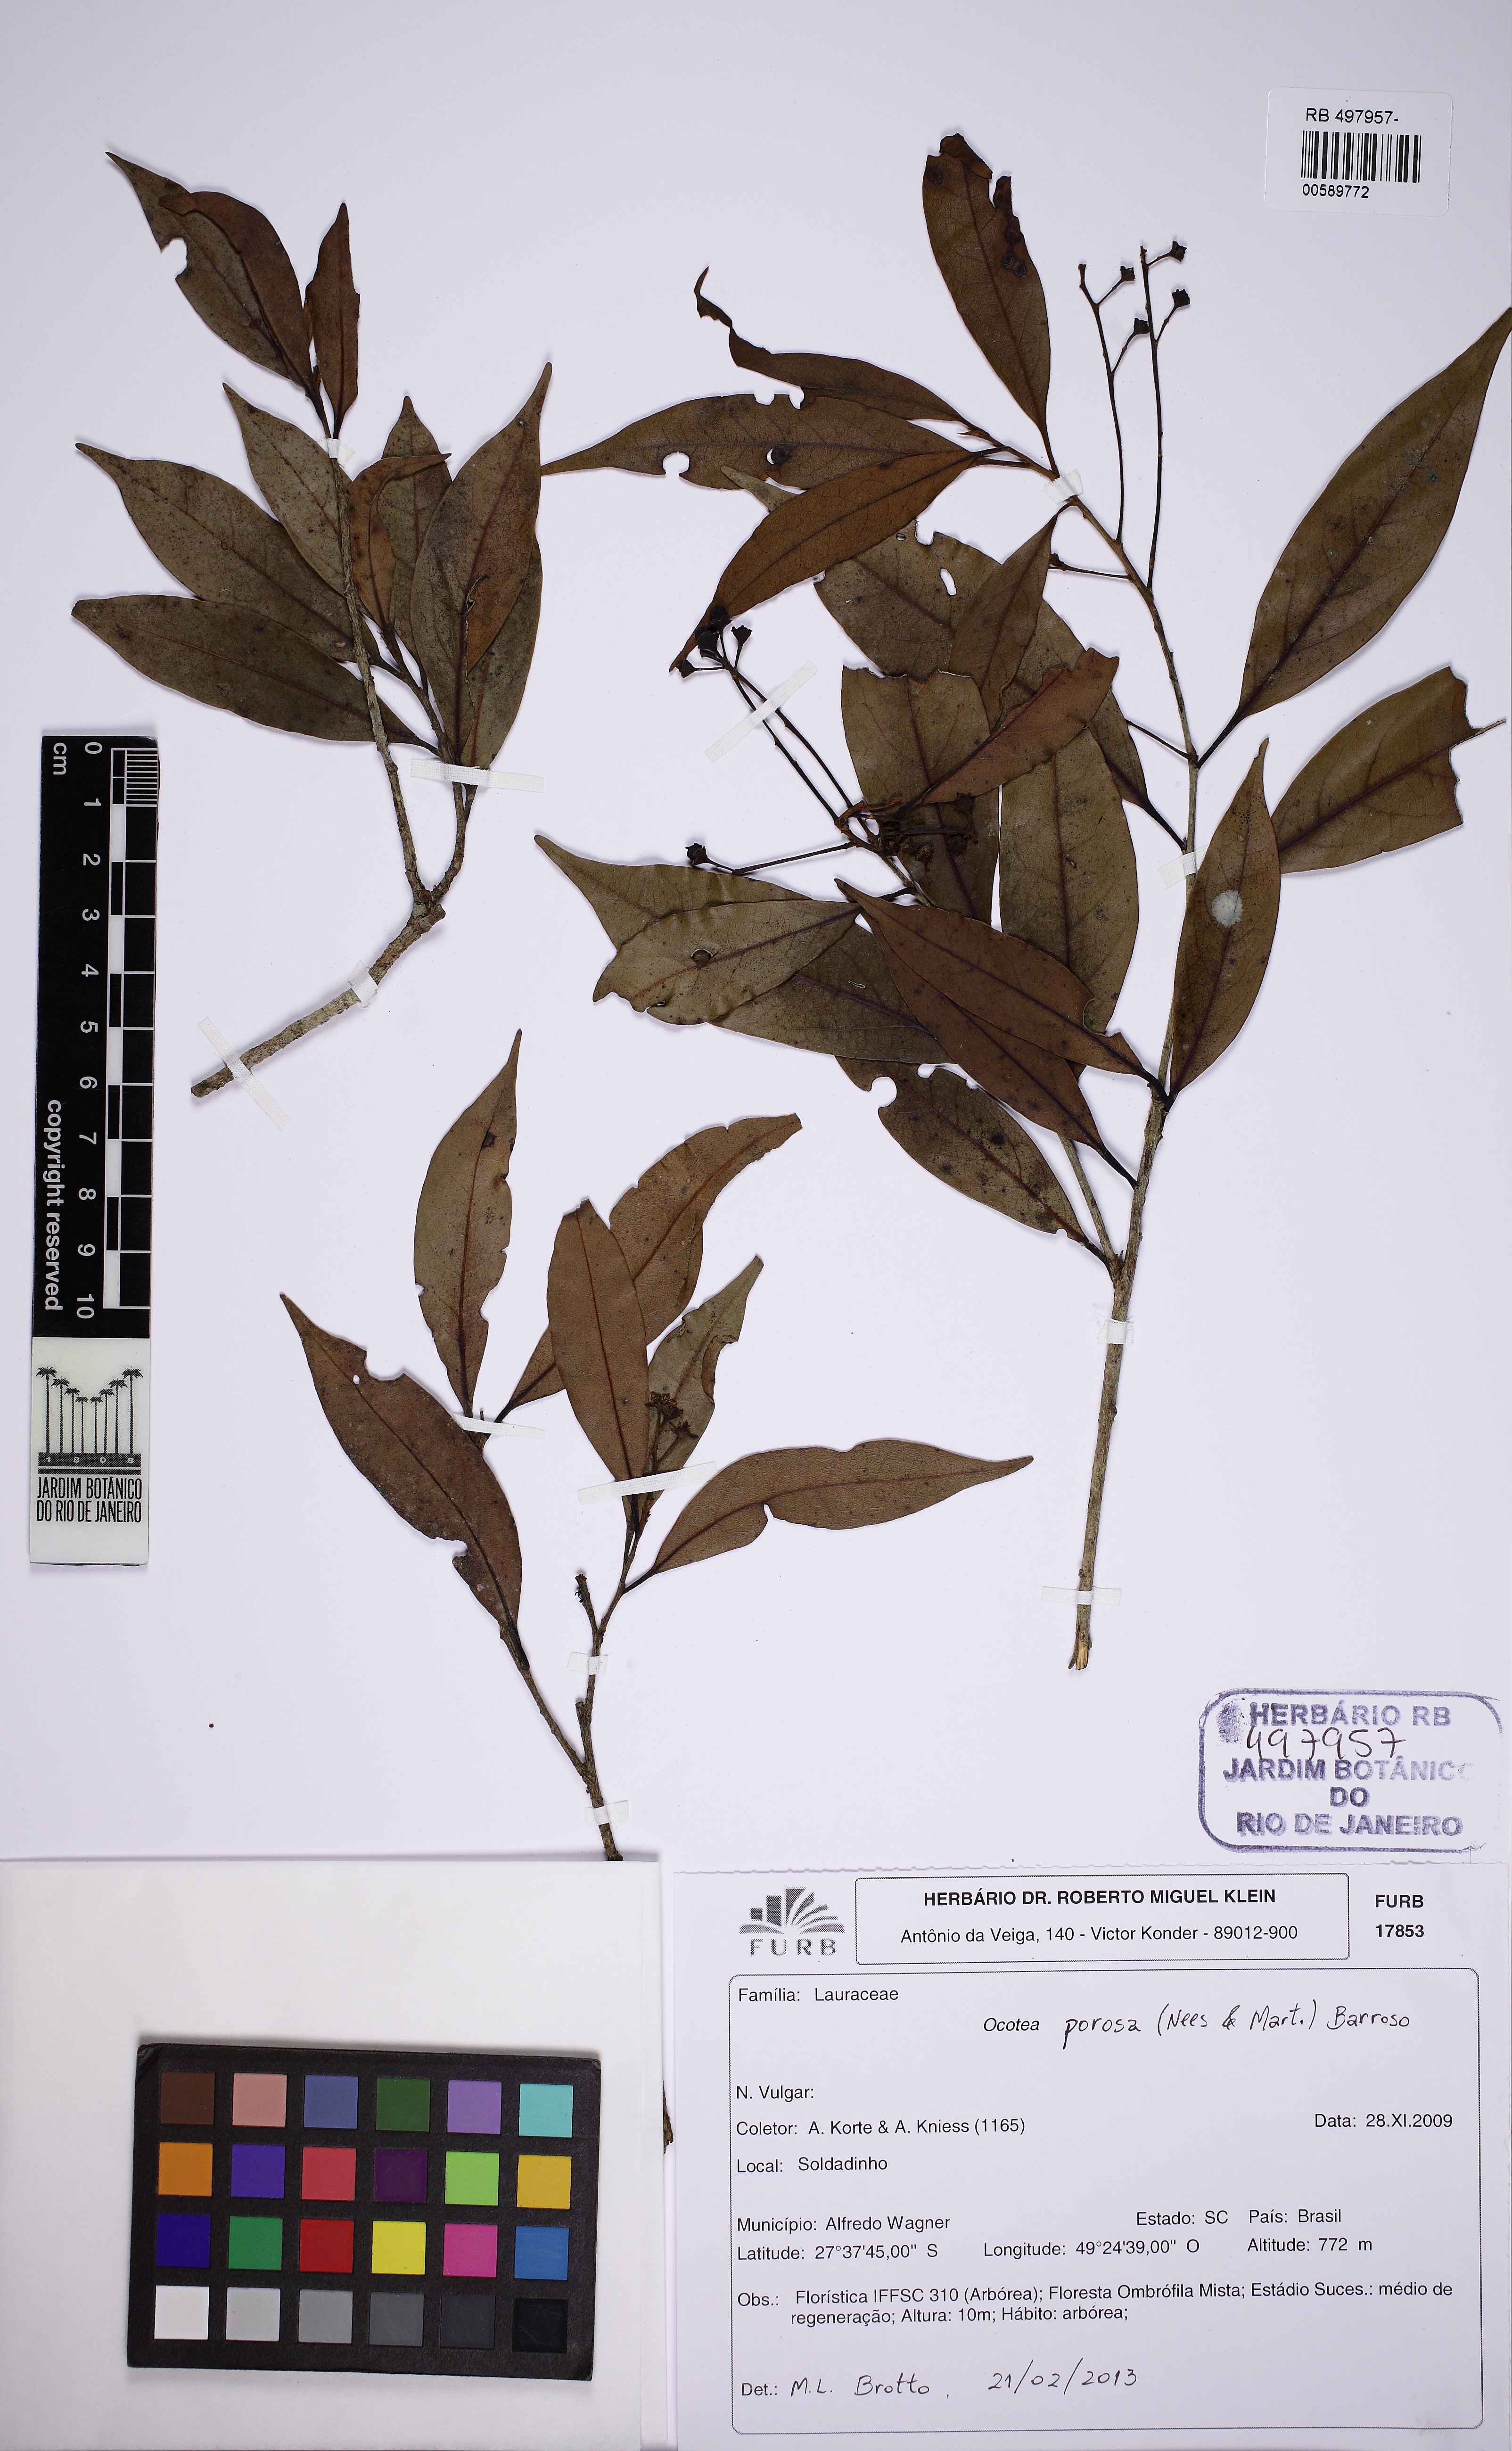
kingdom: Plantae
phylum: Tracheophyta
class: Magnoliopsida
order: Laurales
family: Lauraceae
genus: Ocotea
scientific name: Ocotea porosa
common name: Brazilian-walnut
